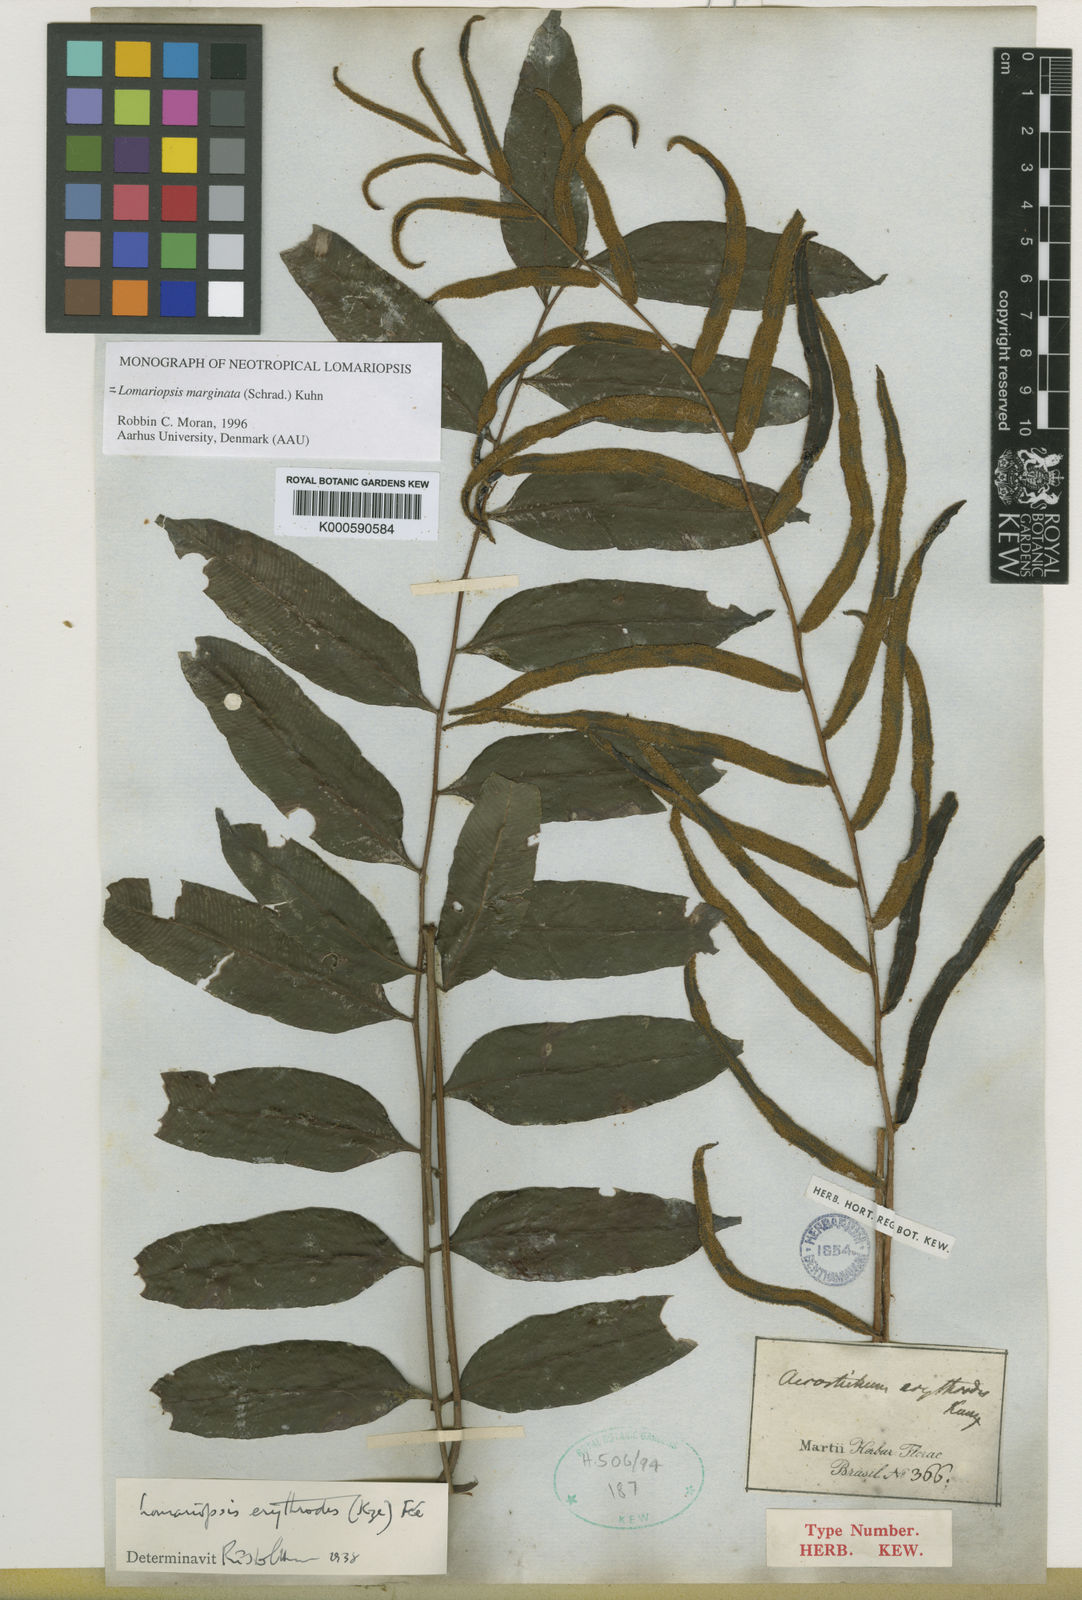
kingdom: Plantae
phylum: Tracheophyta
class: Polypodiopsida
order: Polypodiales
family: Lomariopsidaceae
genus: Lomariopsis
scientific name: Lomariopsis marginata
